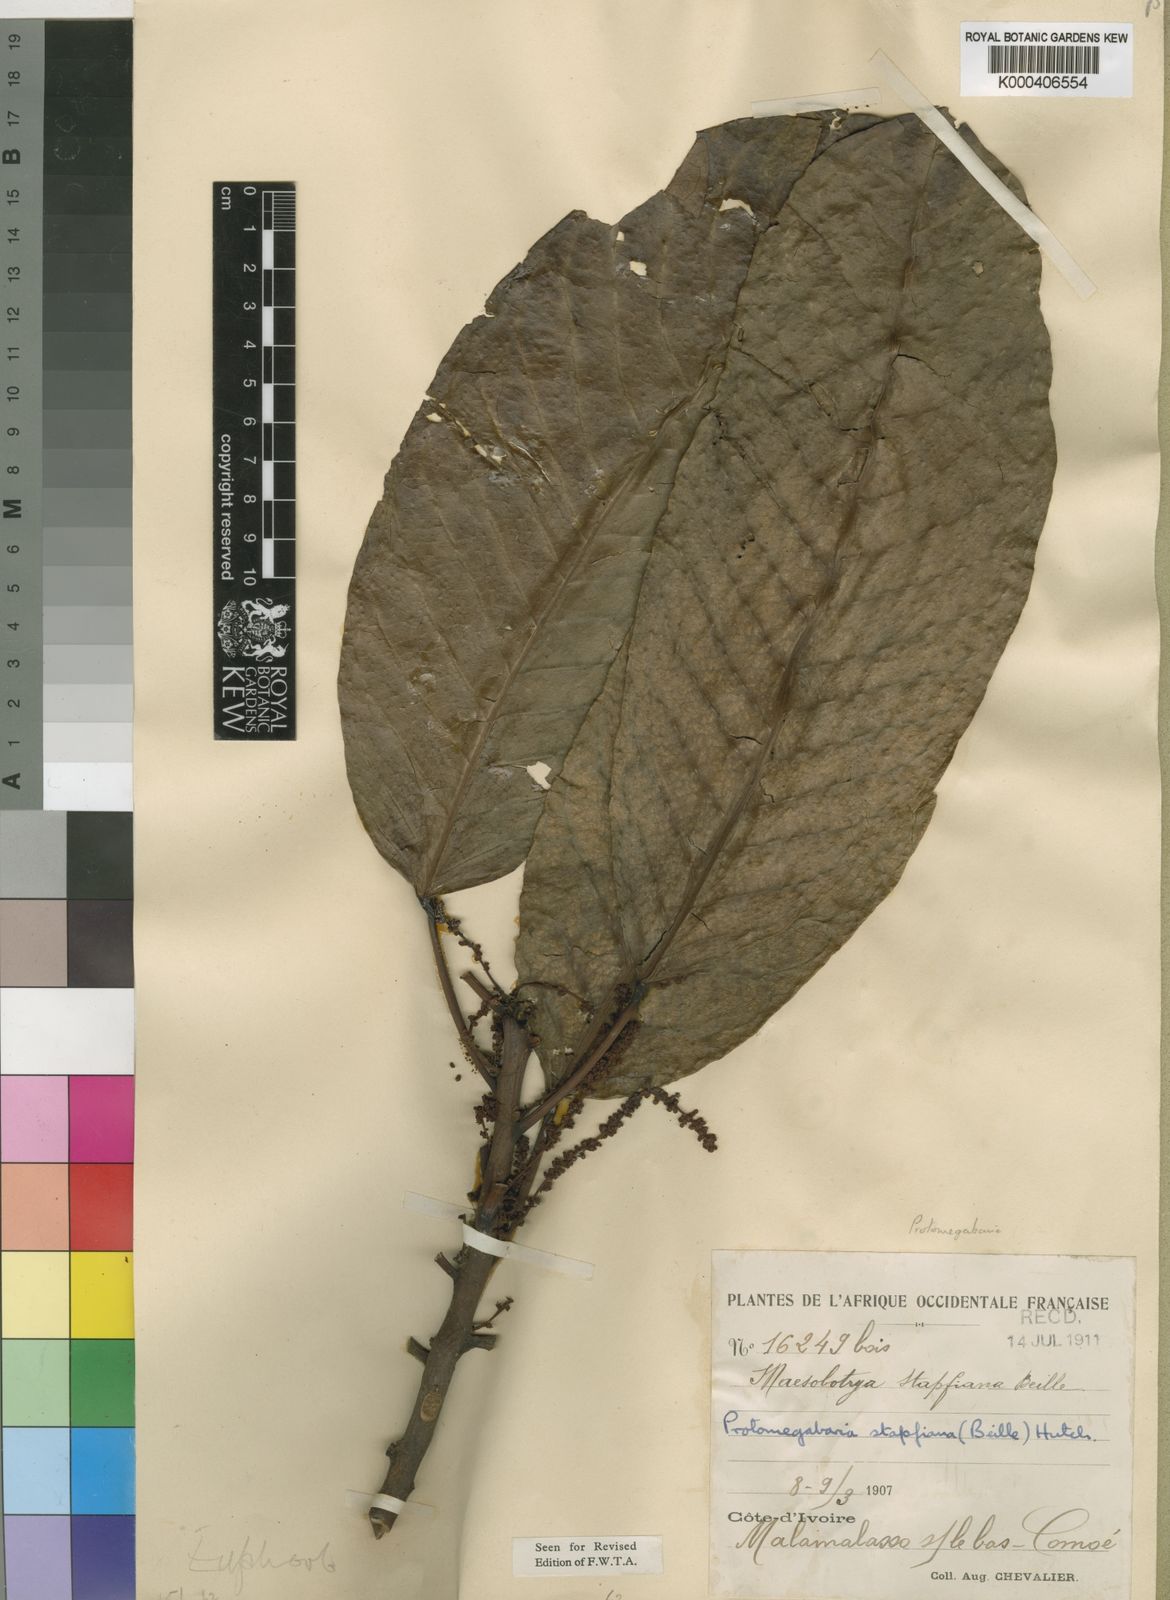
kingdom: Plantae
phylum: Tracheophyta
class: Magnoliopsida
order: Malpighiales
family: Phyllanthaceae
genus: Protomegabaria
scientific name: Protomegabaria stapfiana
